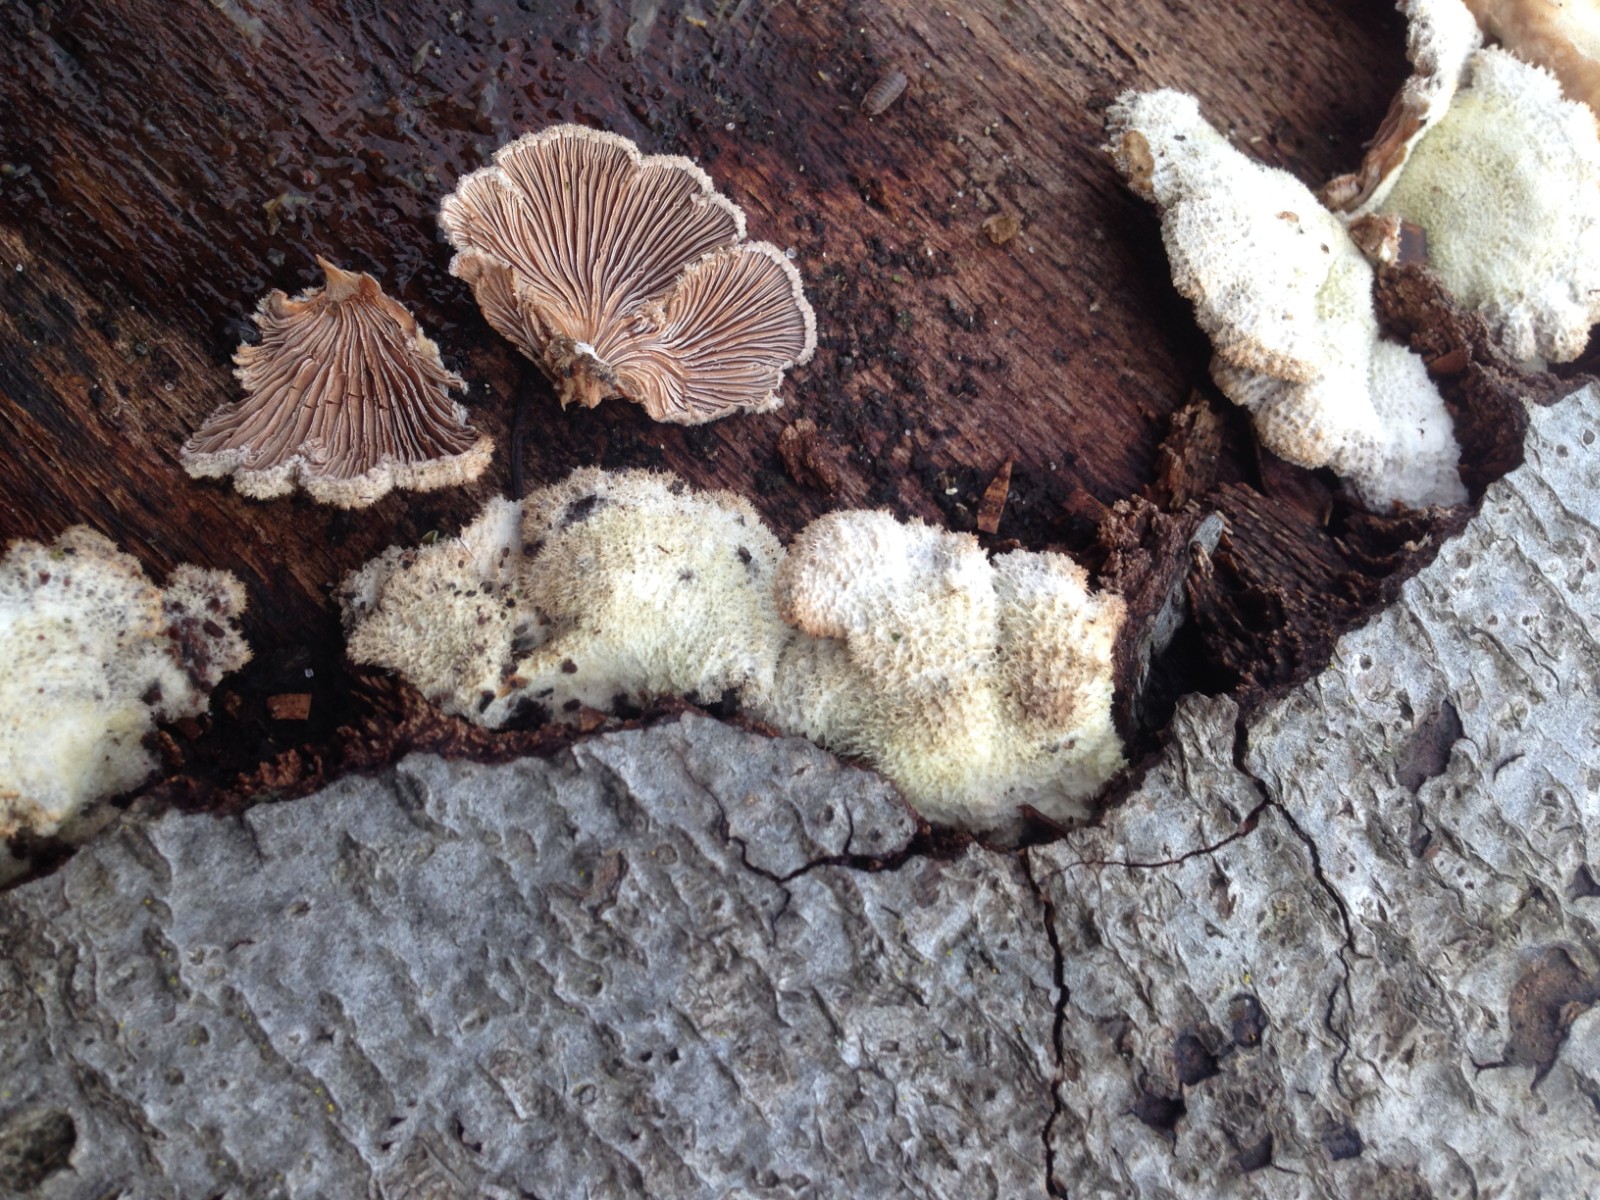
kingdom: Fungi
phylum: Basidiomycota
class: Agaricomycetes
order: Agaricales
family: Schizophyllaceae
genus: Schizophyllum
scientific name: Schizophyllum commune
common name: kløvblad
